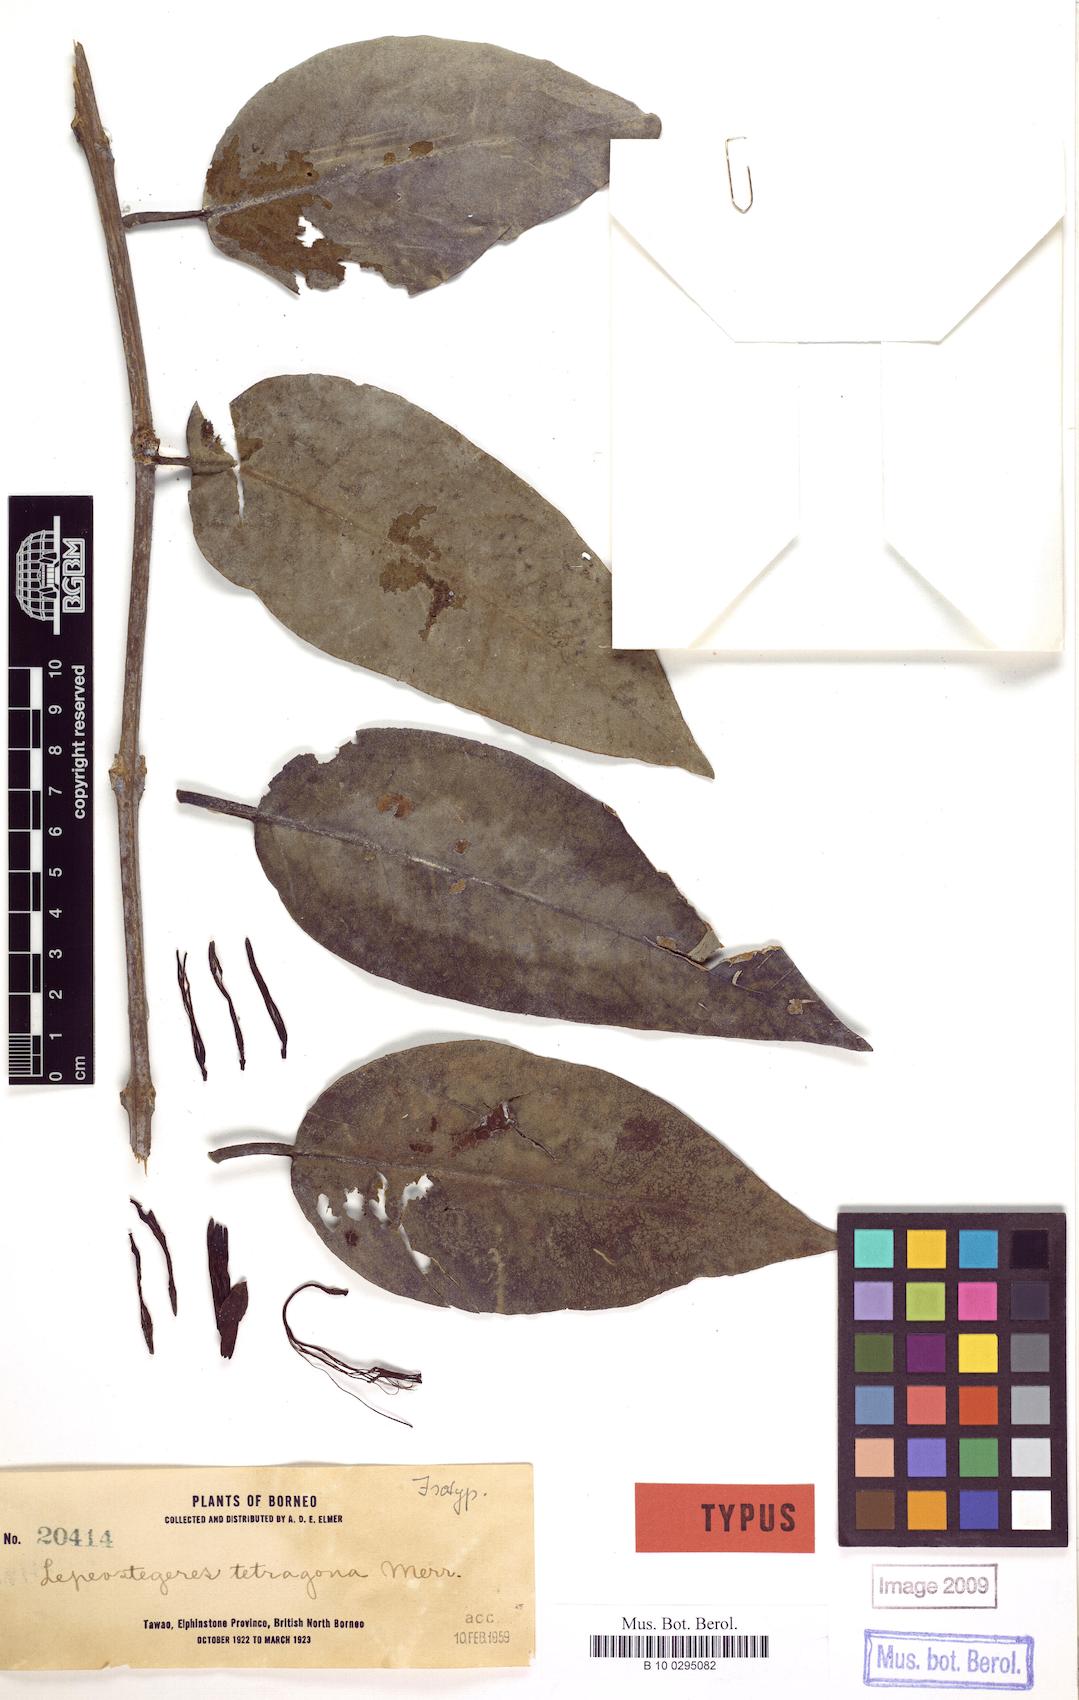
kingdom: Plantae
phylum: Tracheophyta
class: Magnoliopsida
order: Santalales
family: Loranthaceae
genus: Lepeostegeres
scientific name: Lepeostegeres lanceifolius
